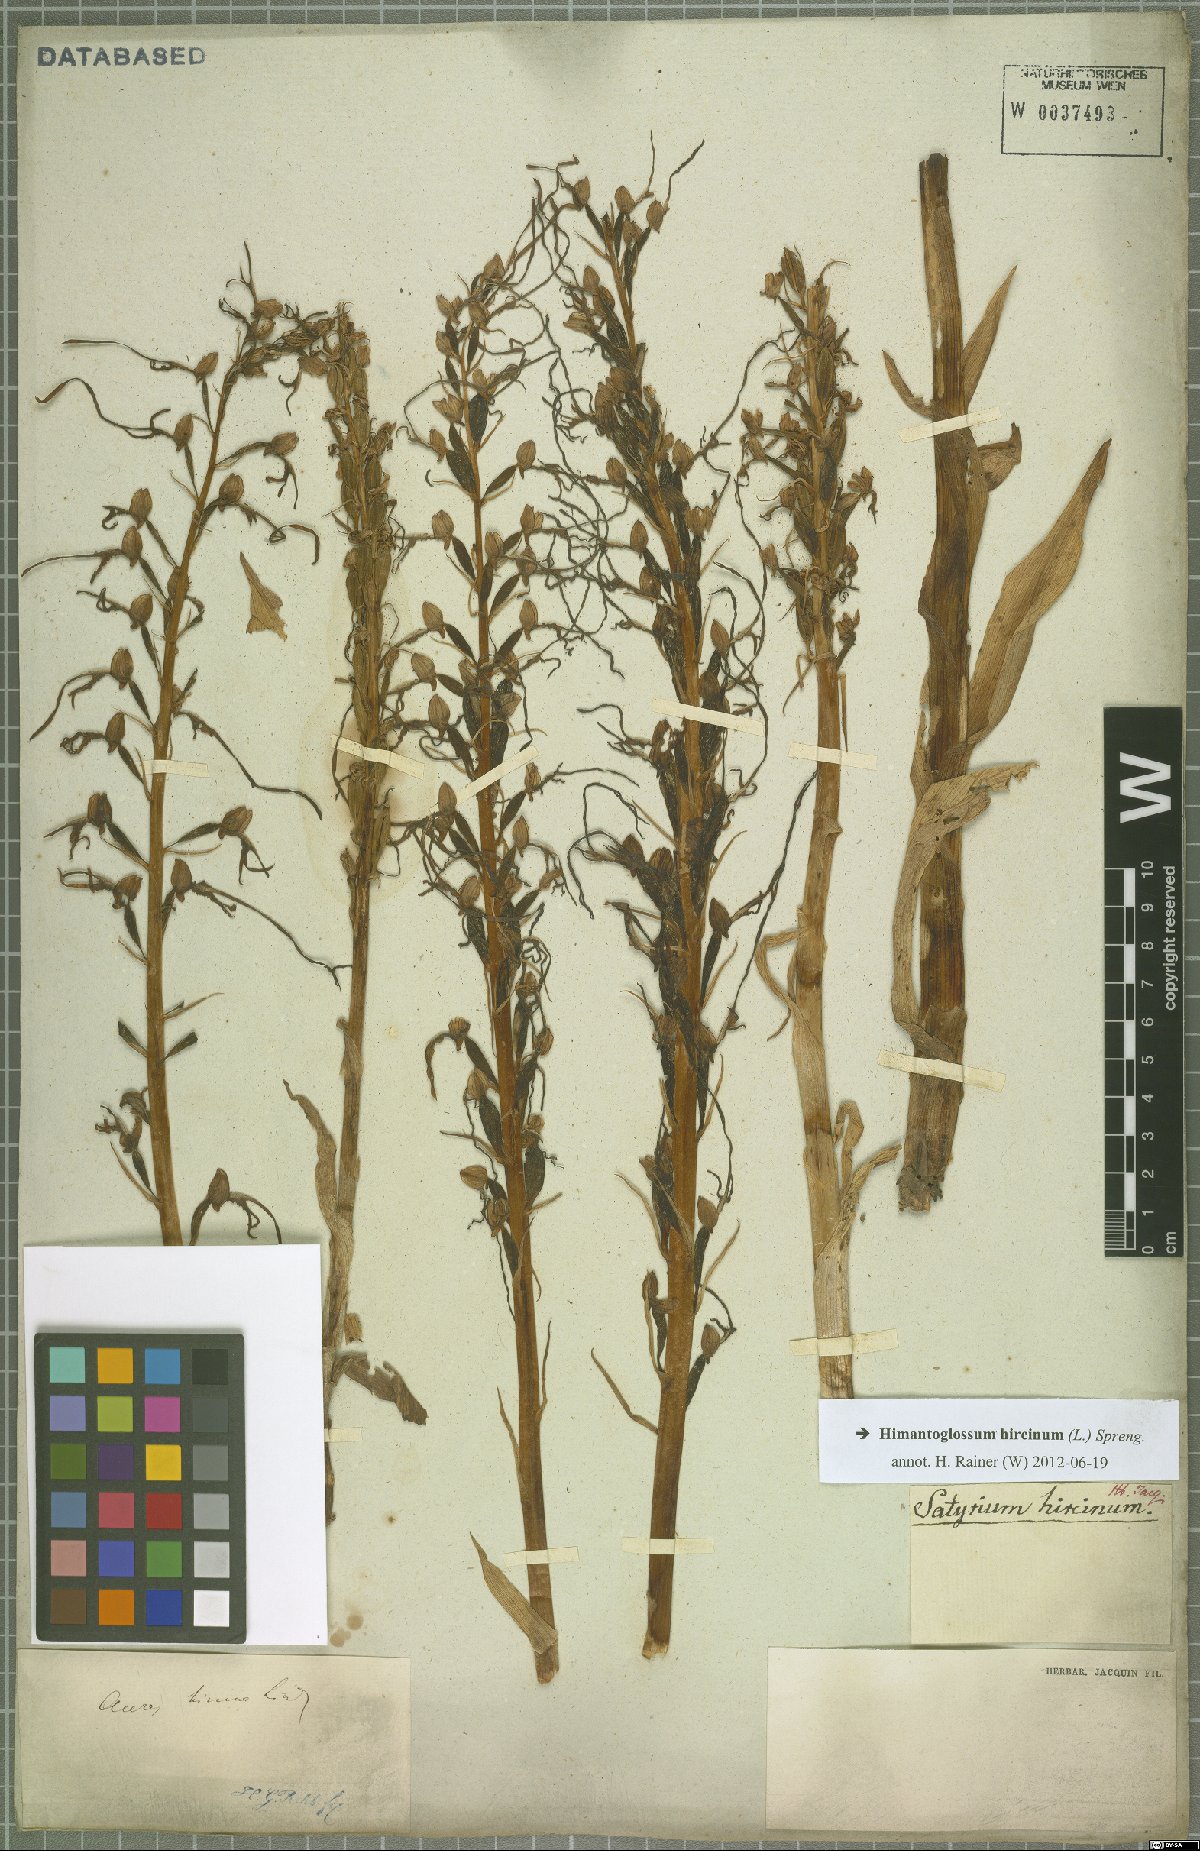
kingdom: Plantae
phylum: Tracheophyta
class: Liliopsida
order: Asparagales
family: Orchidaceae
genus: Himantoglossum
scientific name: Himantoglossum hircinum
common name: Lizard orchid
